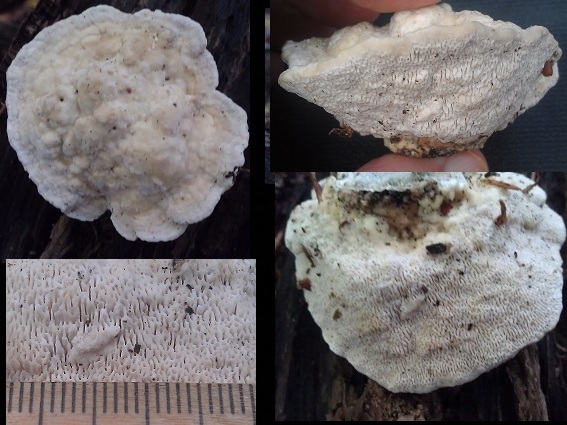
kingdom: Fungi
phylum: Basidiomycota
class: Agaricomycetes
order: Polyporales
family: Polyporaceae
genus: Trametes
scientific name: Trametes gibbosa
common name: puklet læderporesvamp
